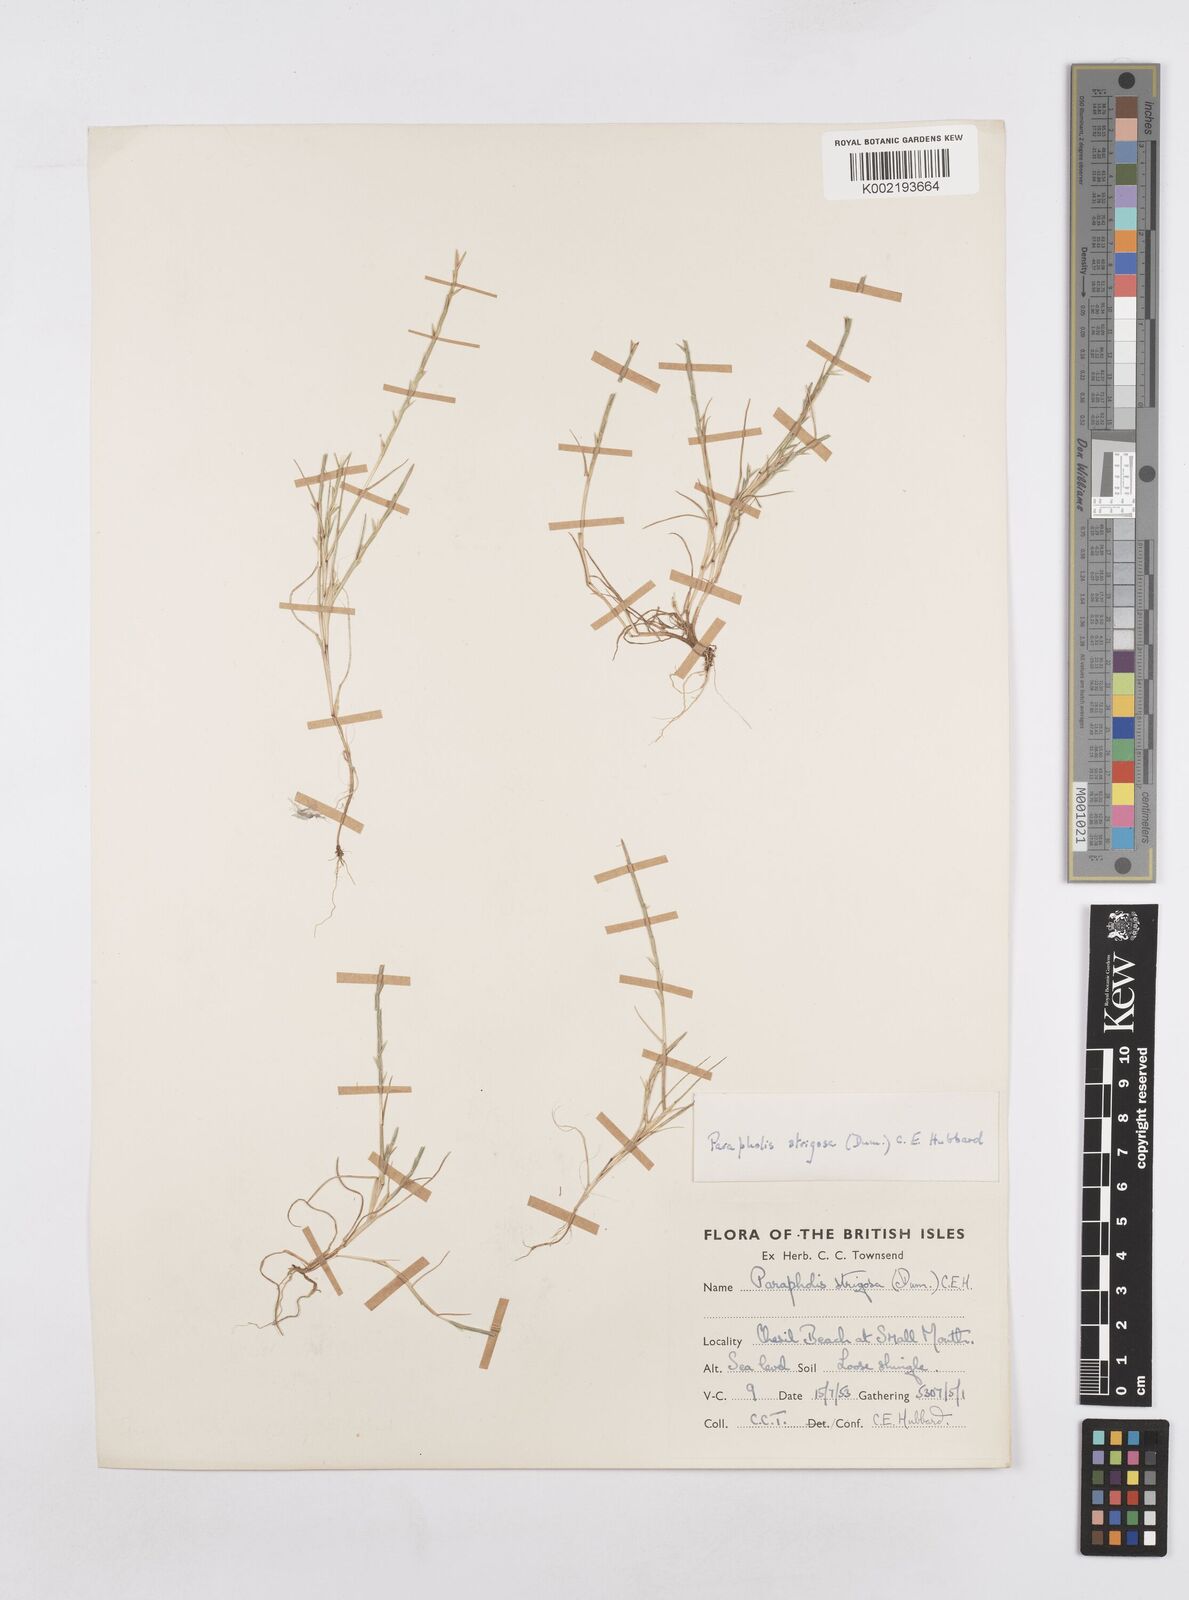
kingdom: Plantae
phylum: Tracheophyta
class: Liliopsida
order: Poales
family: Poaceae
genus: Parapholis
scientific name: Parapholis strigosa
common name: Hard-grass
